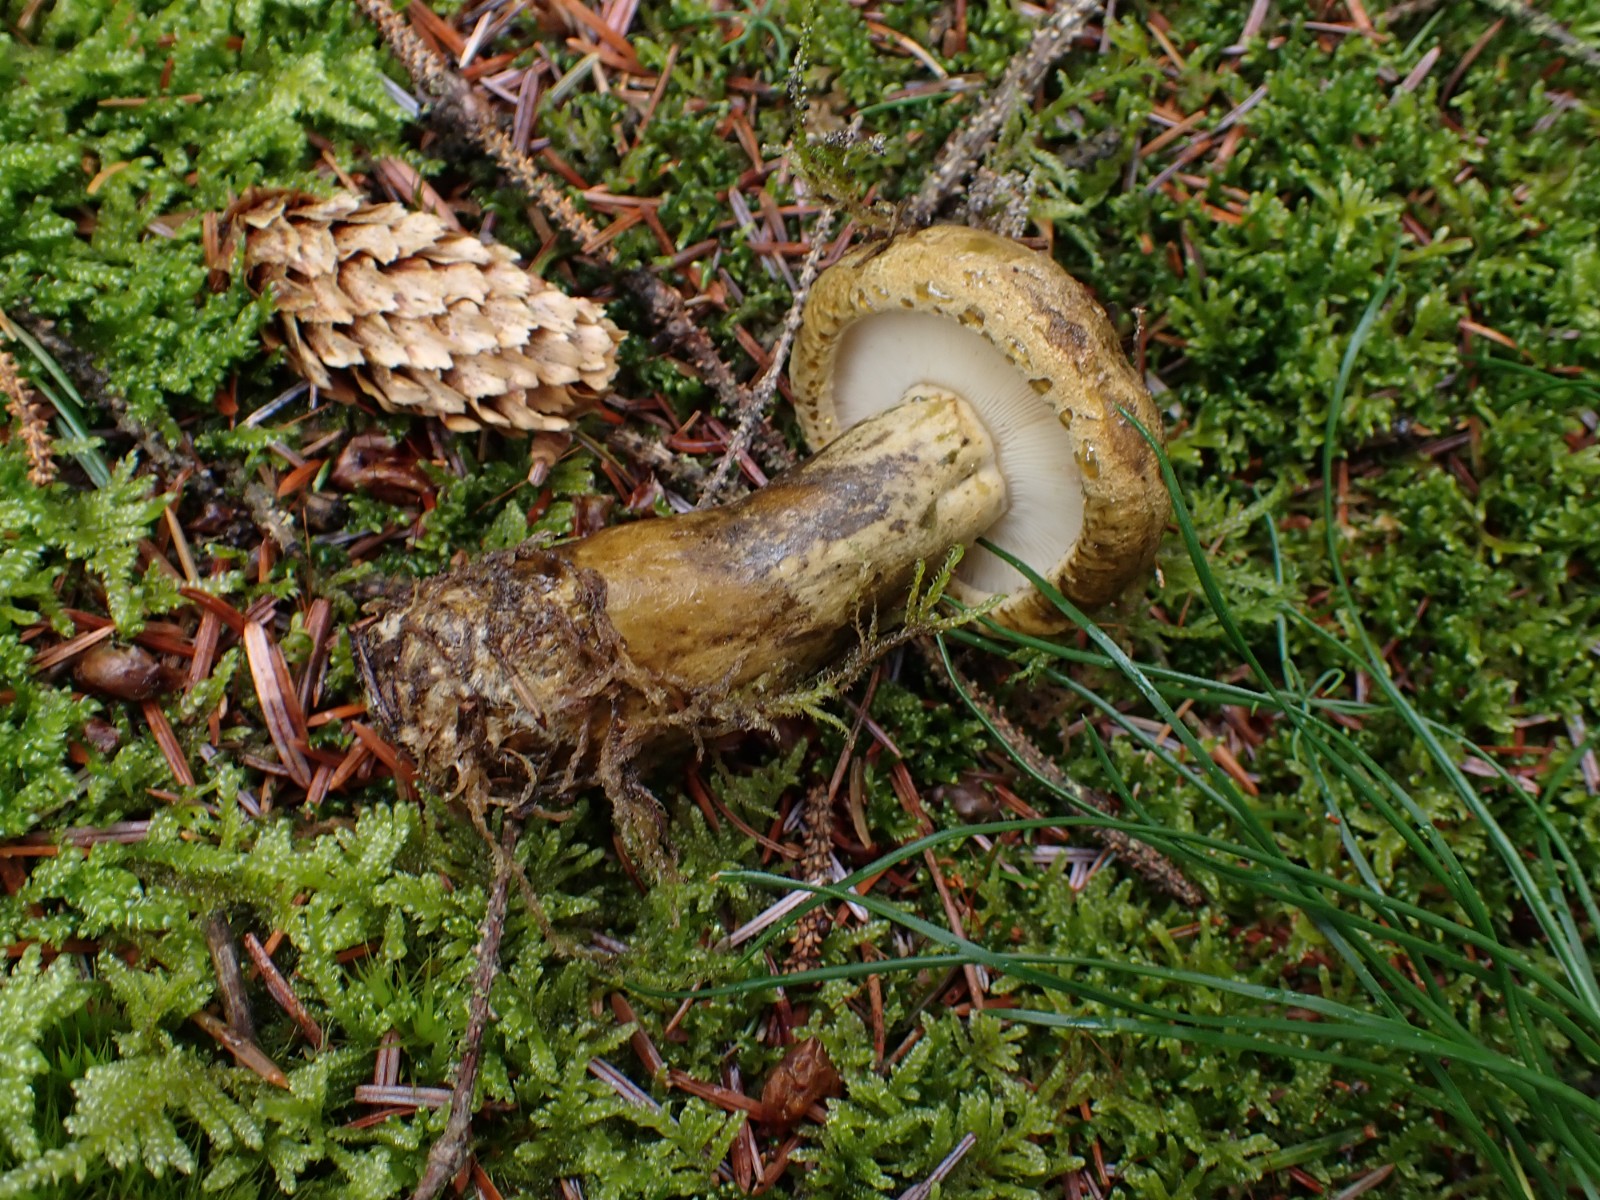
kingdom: Fungi
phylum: Basidiomycota
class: Agaricomycetes
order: Russulales
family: Russulaceae
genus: Lactarius
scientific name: Lactarius necator
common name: manddraber-mælkehat
